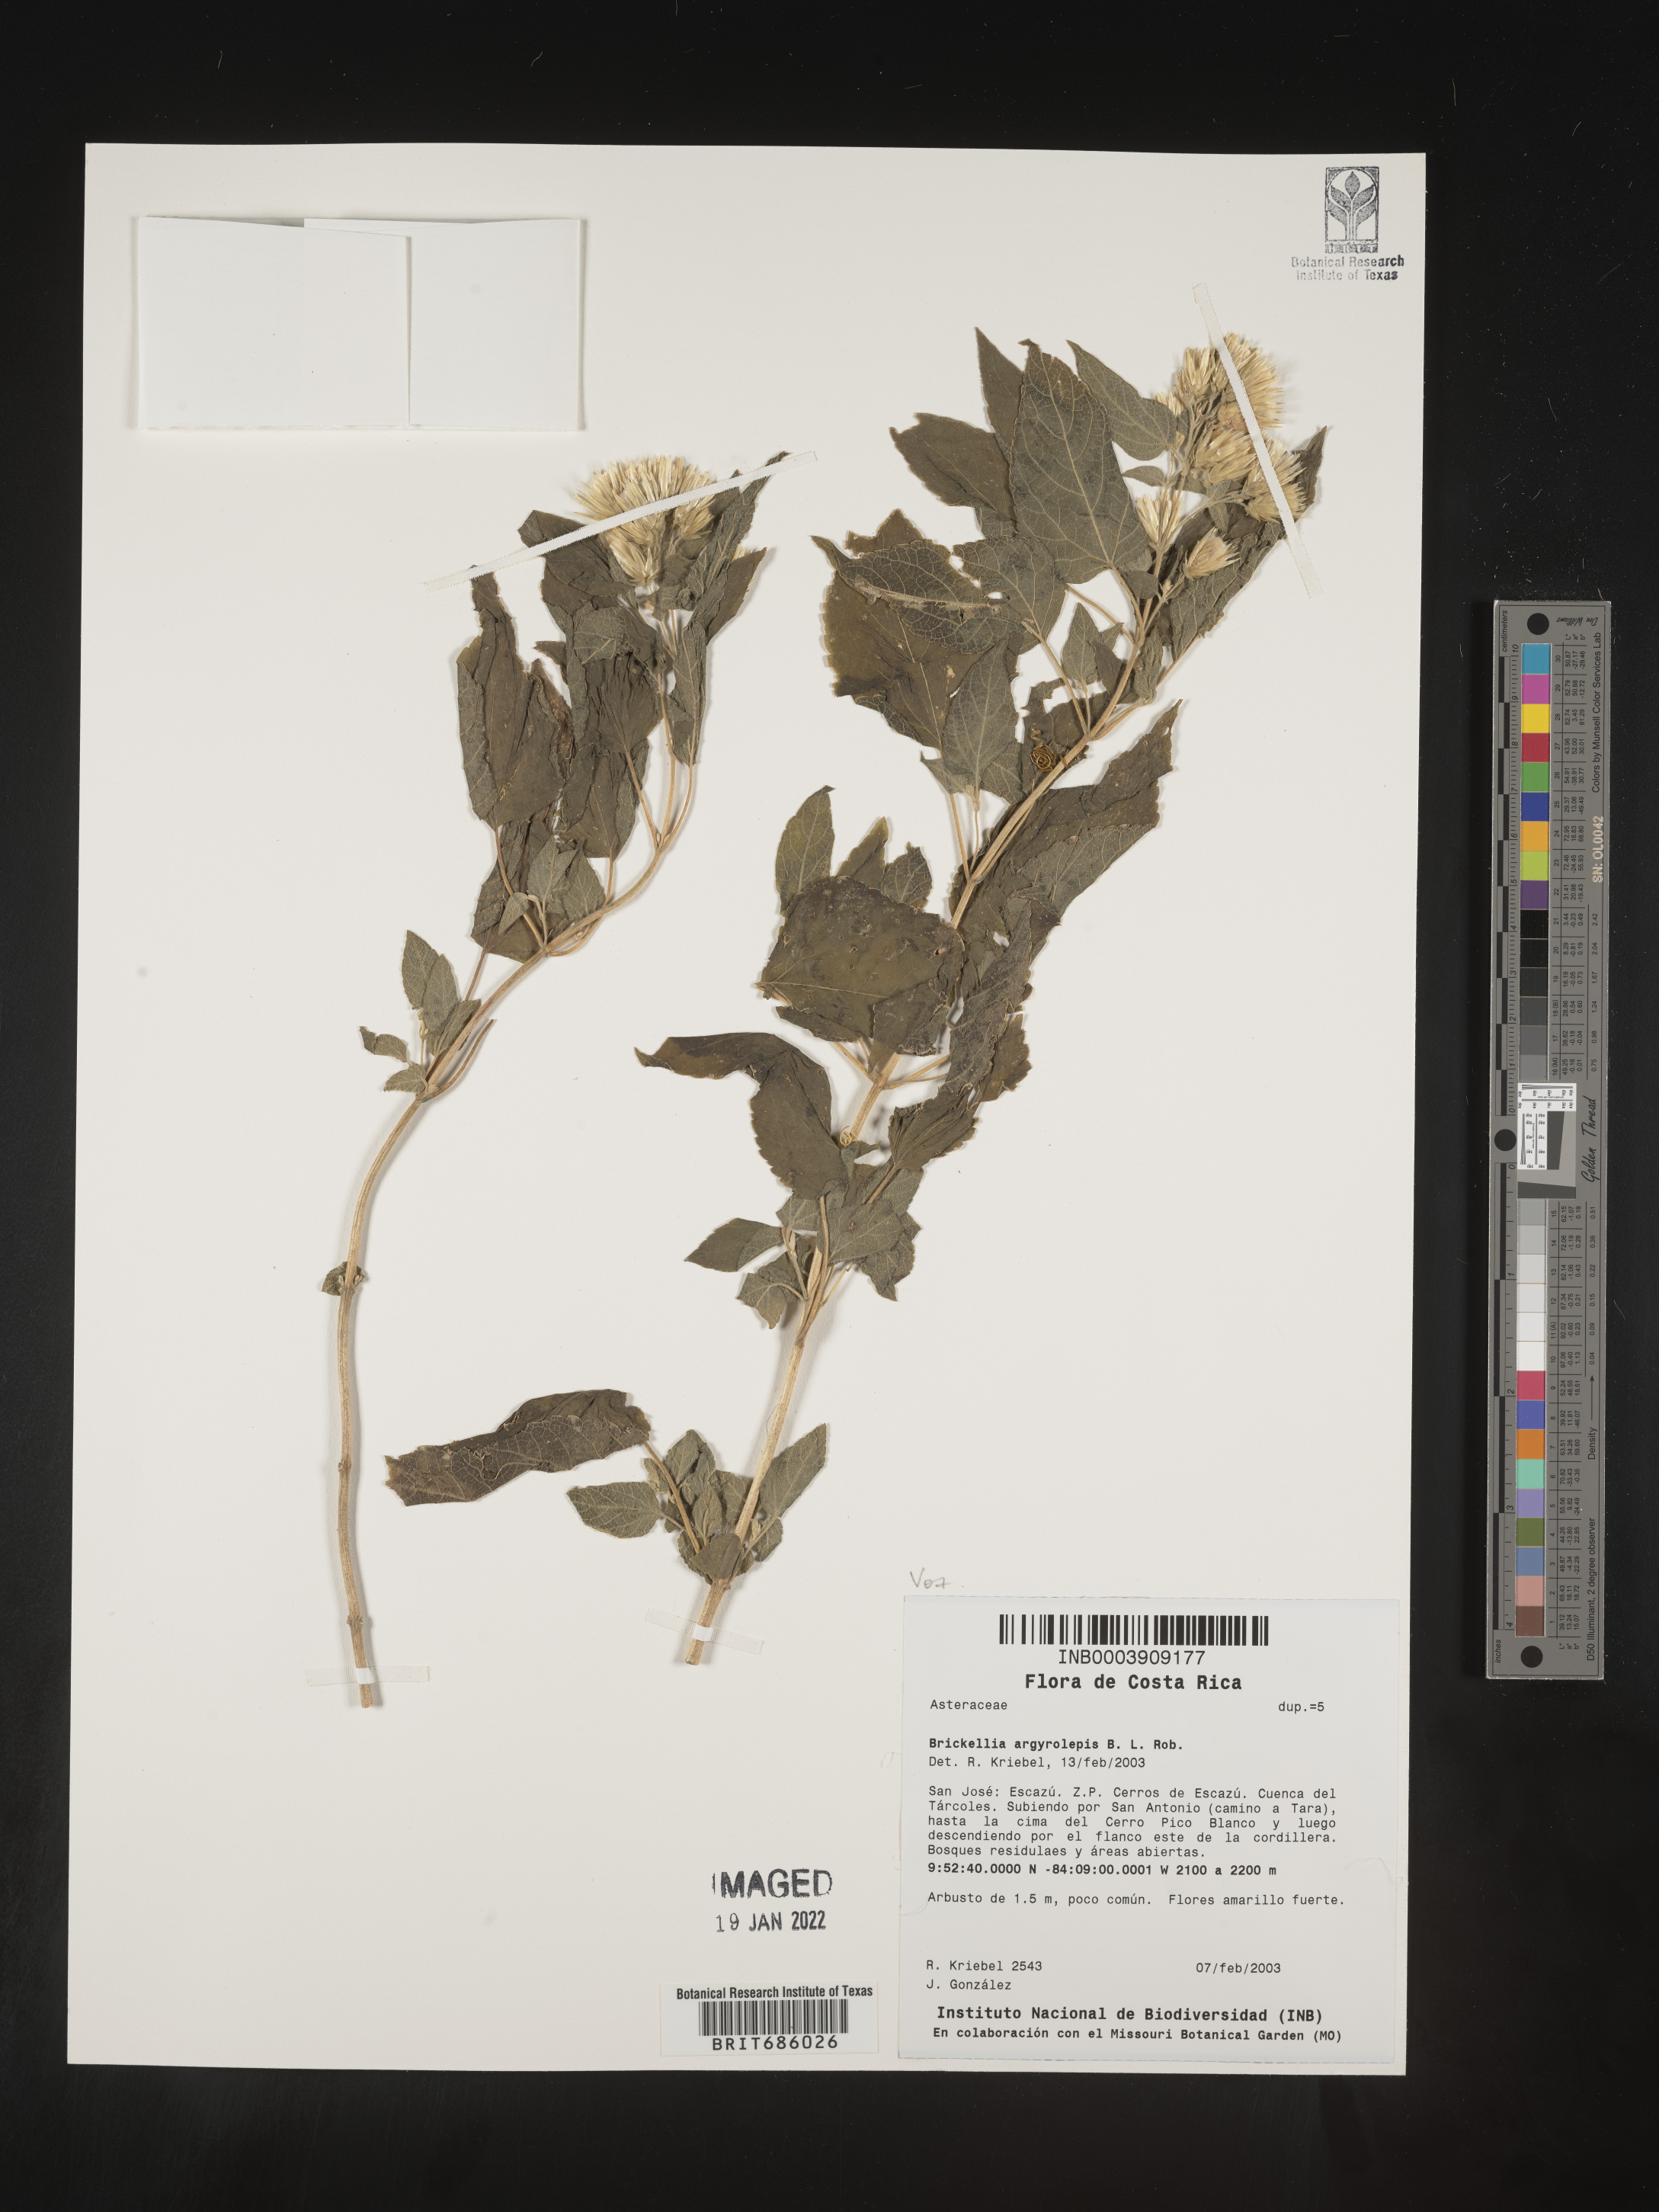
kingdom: Plantae
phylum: Tracheophyta
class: Magnoliopsida
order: Asterales
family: Asteraceae
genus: Brickellia
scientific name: Brickellia
